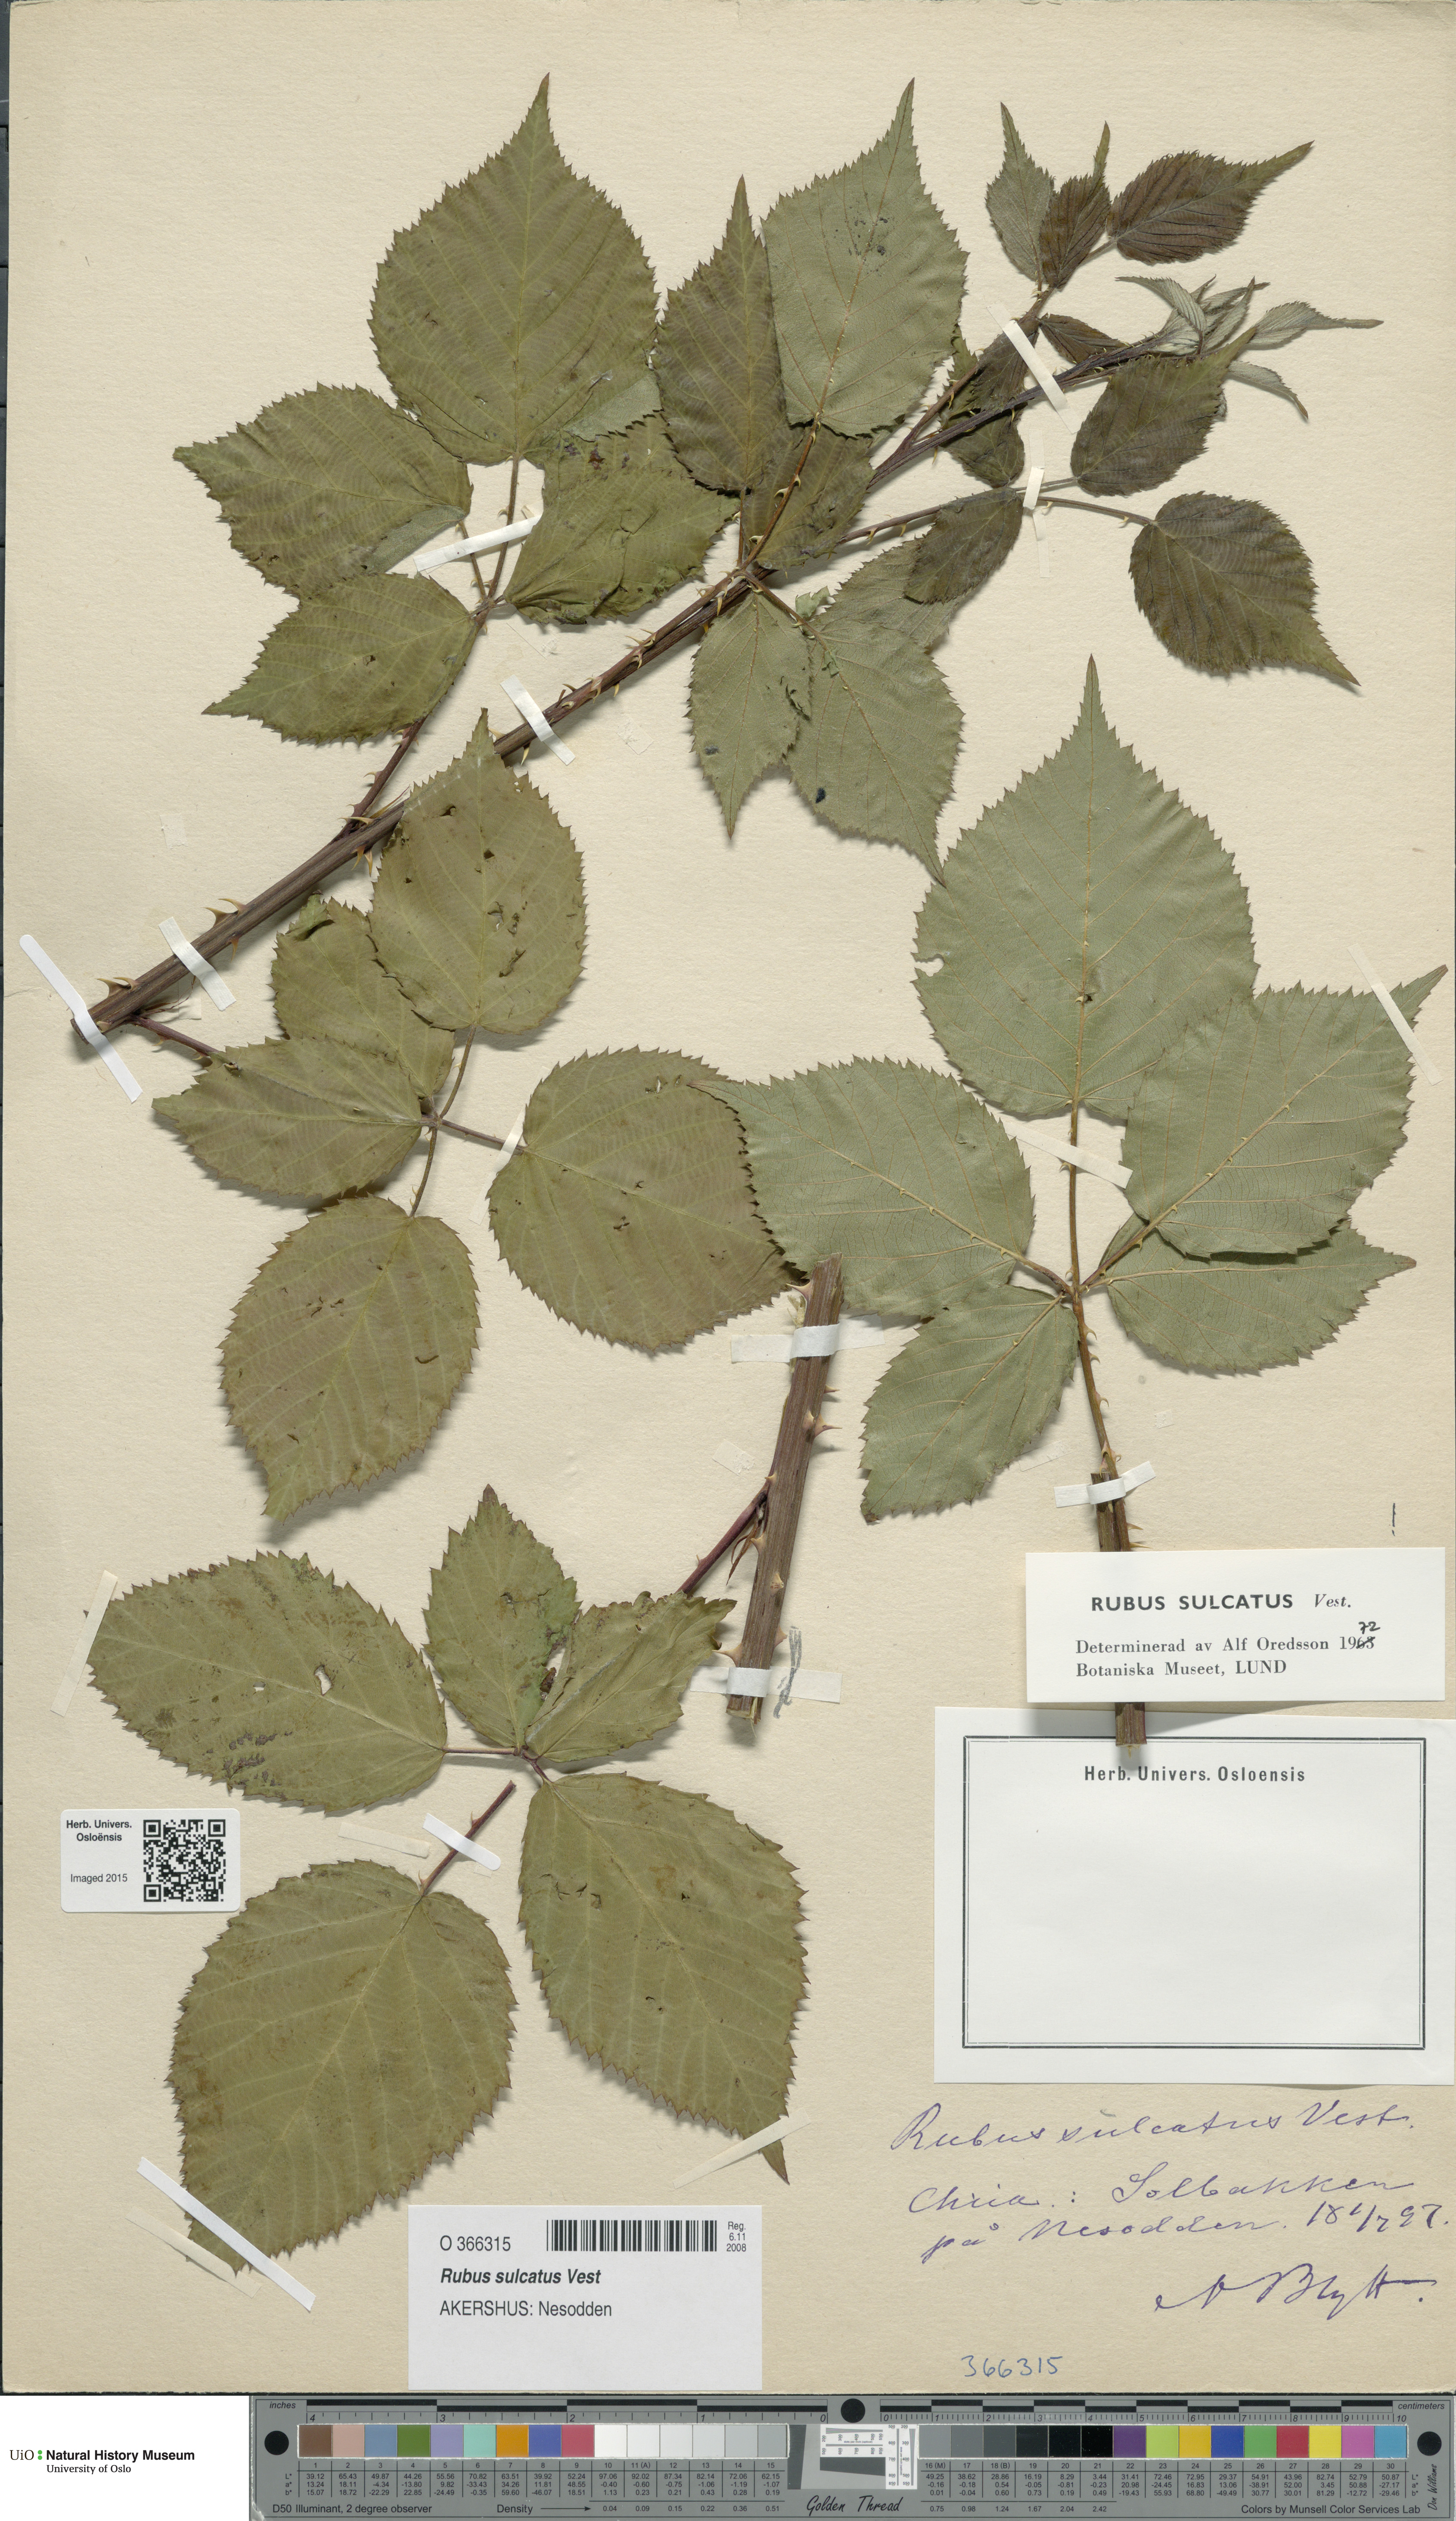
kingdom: Plantae
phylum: Tracheophyta
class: Magnoliopsida
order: Rosales
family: Rosaceae
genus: Rubus
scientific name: Rubus sulcatus
